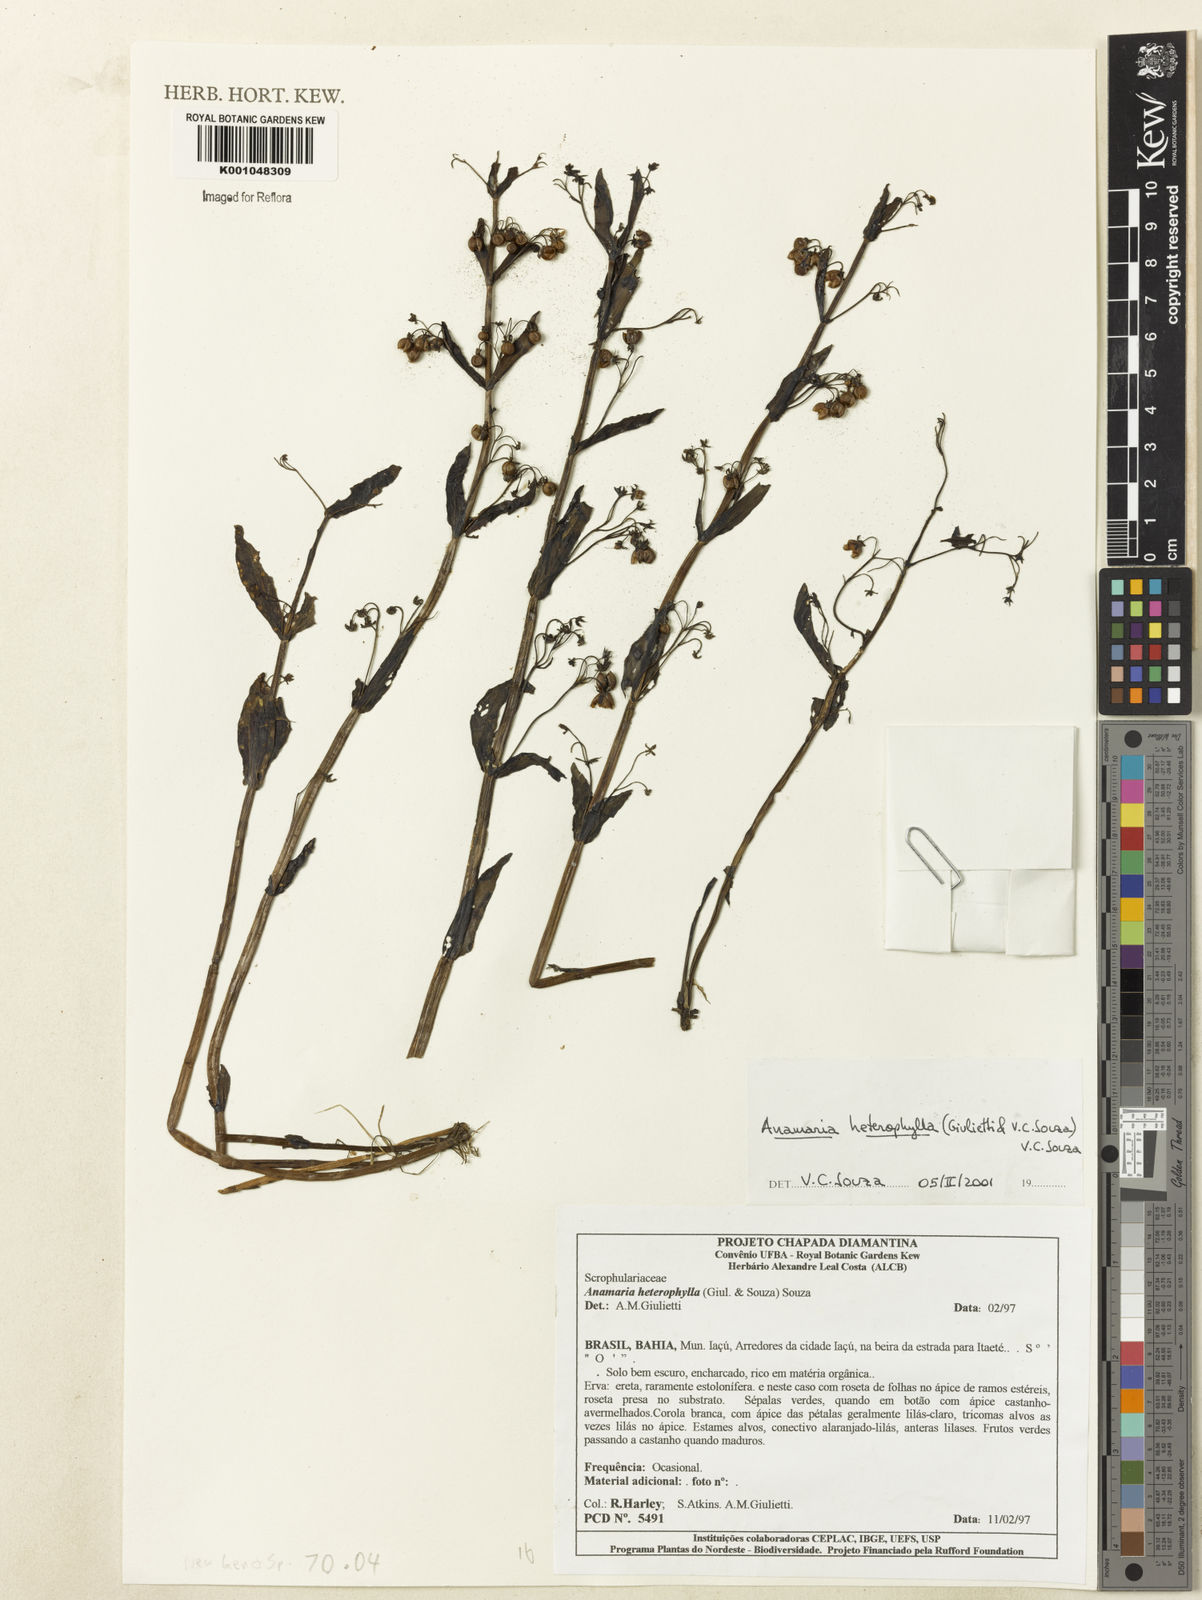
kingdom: Plantae
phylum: Tracheophyta
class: Magnoliopsida
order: Lamiales
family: Plantaginaceae
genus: Anamaria
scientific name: Anamaria heterophylla
